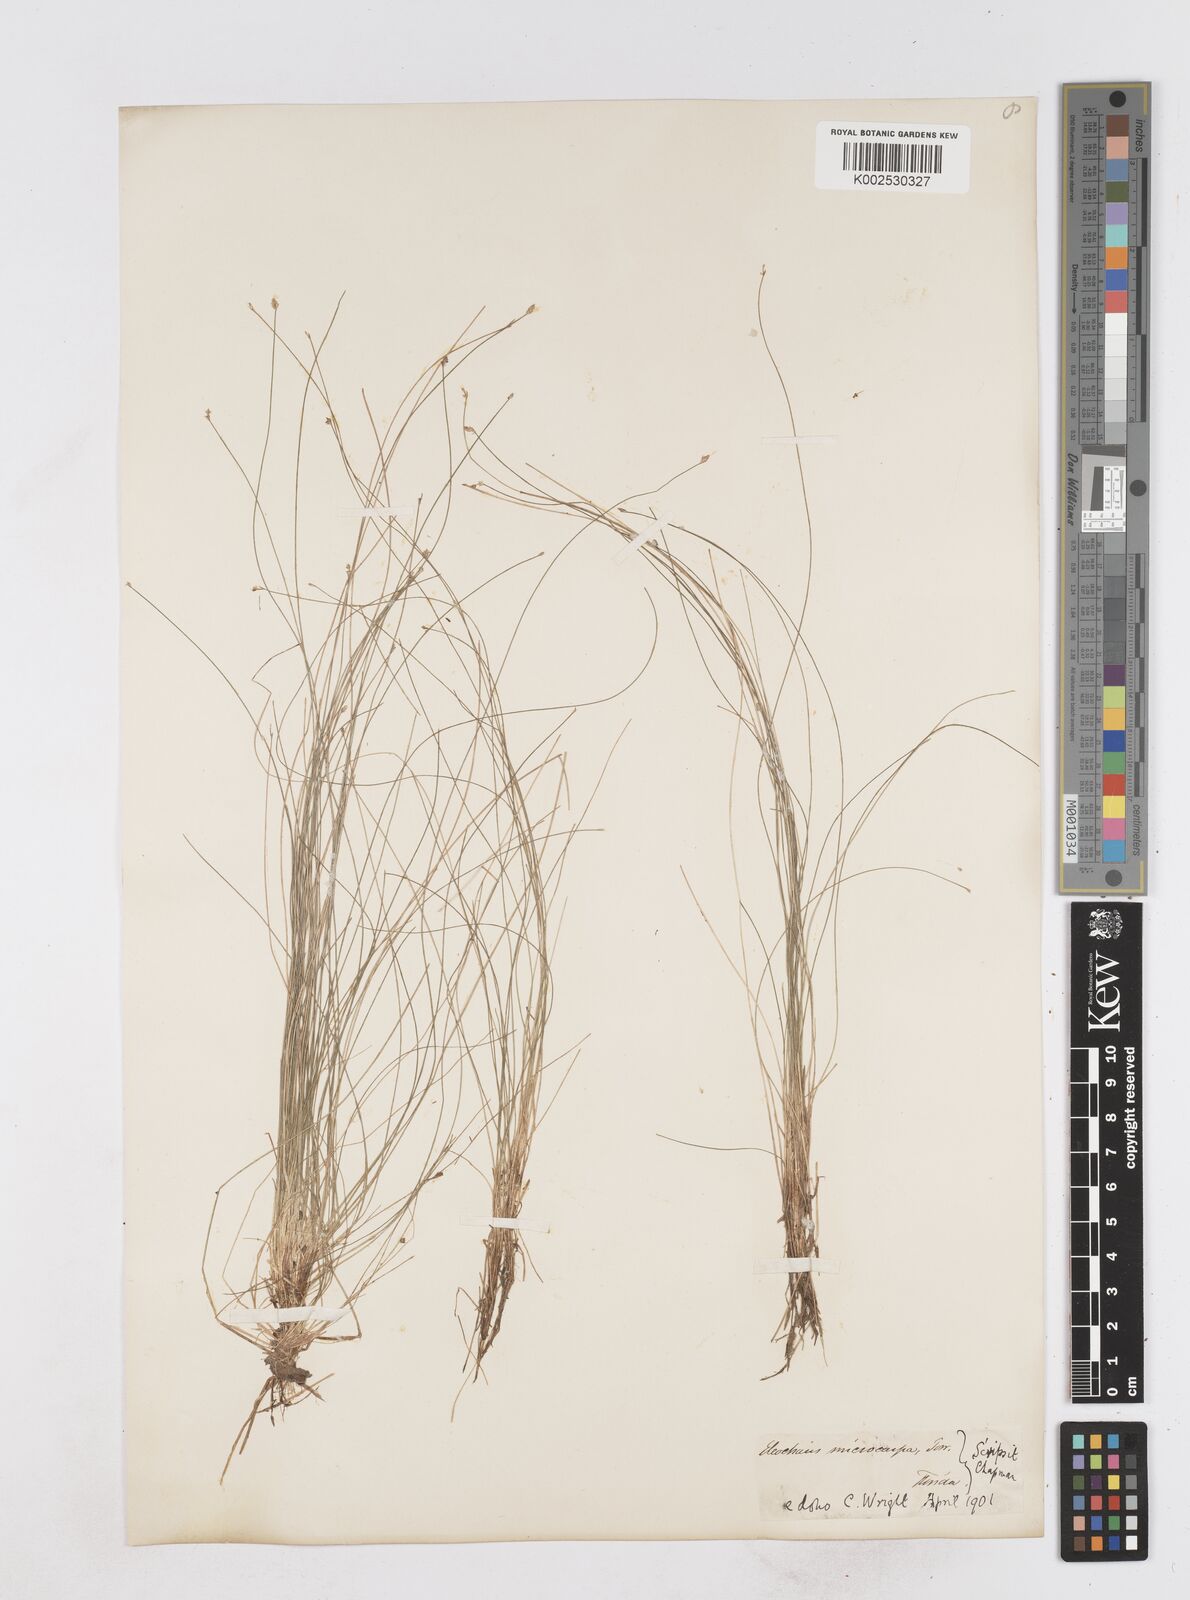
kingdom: Plantae
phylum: Tracheophyta
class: Liliopsida
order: Poales
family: Cyperaceae
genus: Eleocharis
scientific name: Eleocharis microcarpa
